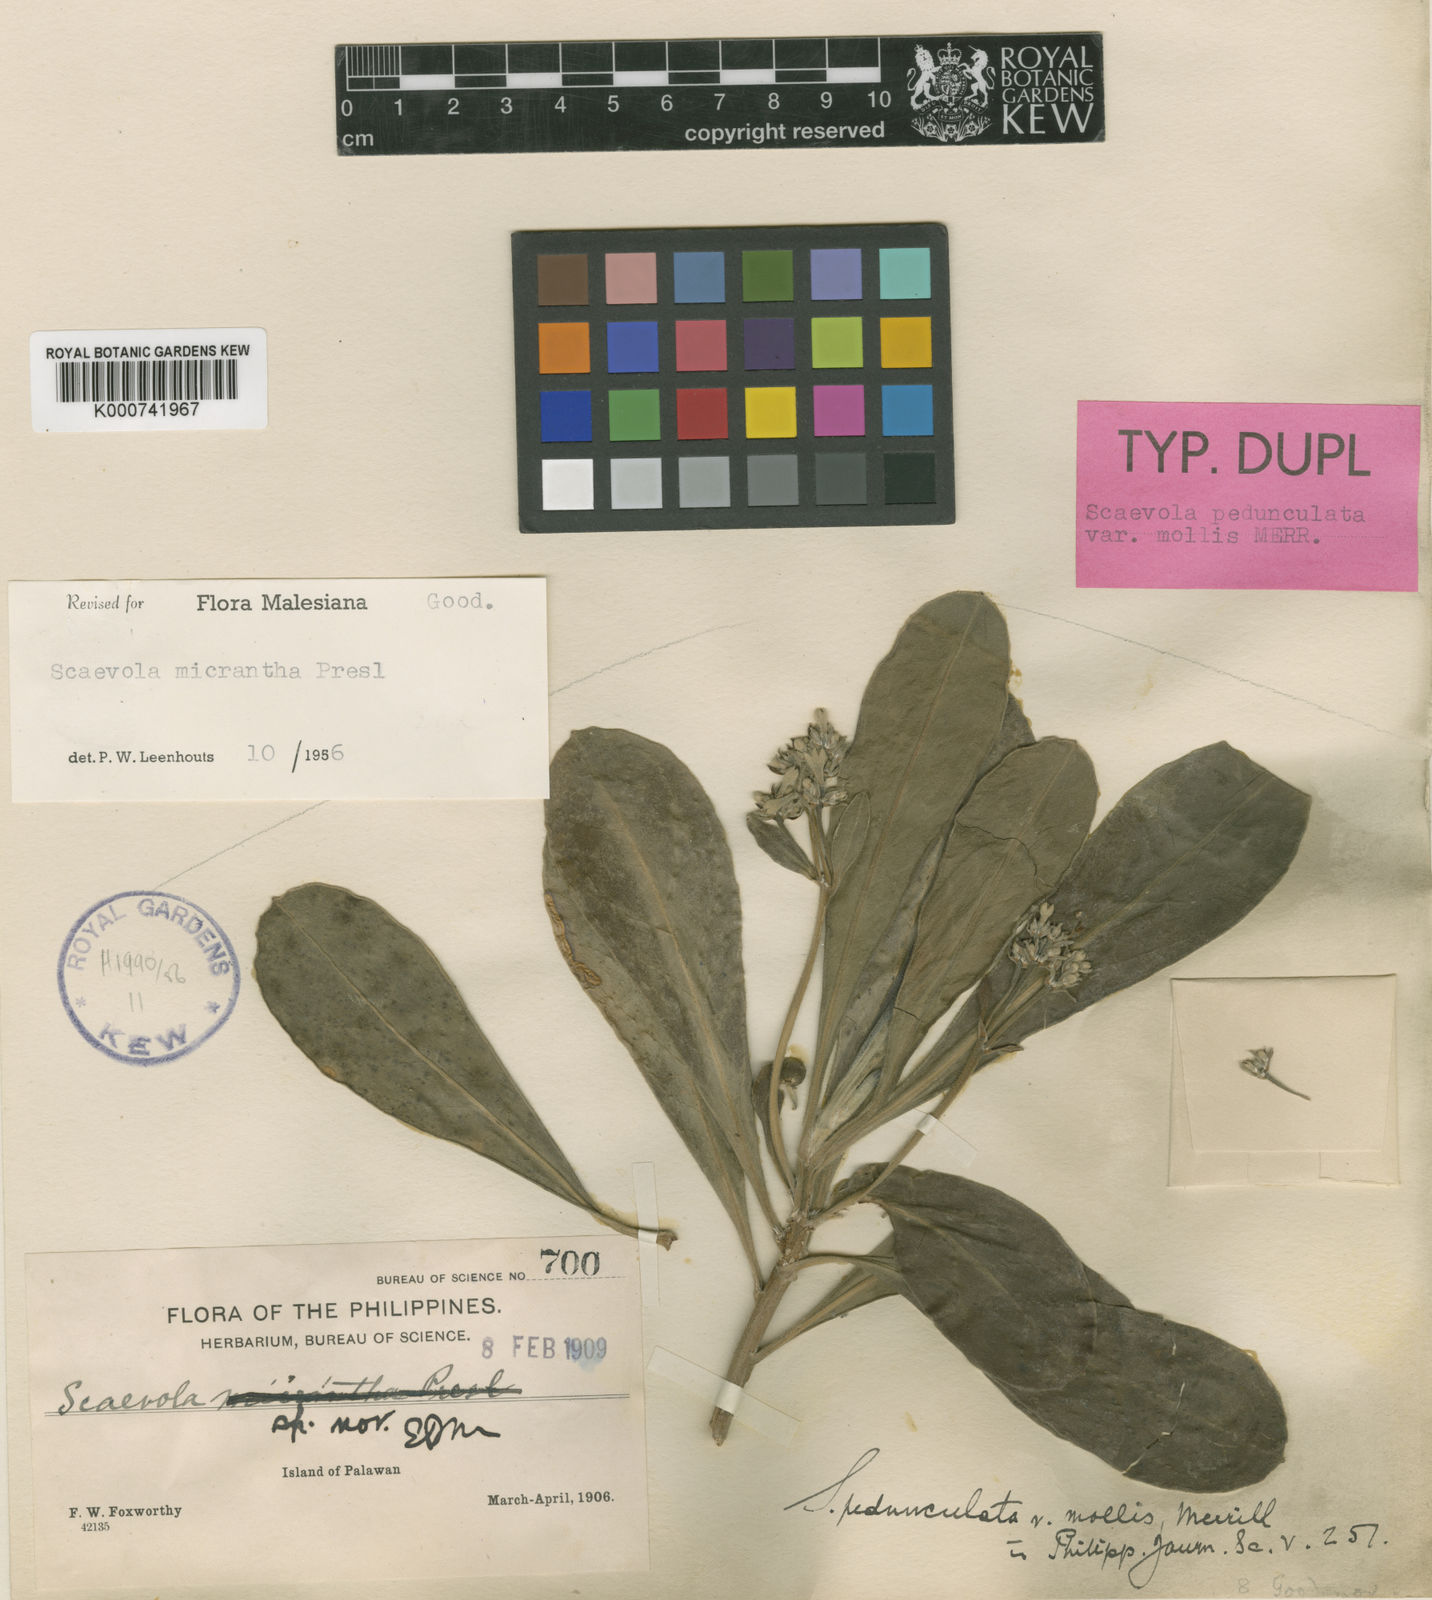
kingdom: Plantae
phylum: Tracheophyta
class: Magnoliopsida
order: Asterales
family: Goodeniaceae
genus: Scaevola
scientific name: Scaevola micrantha
